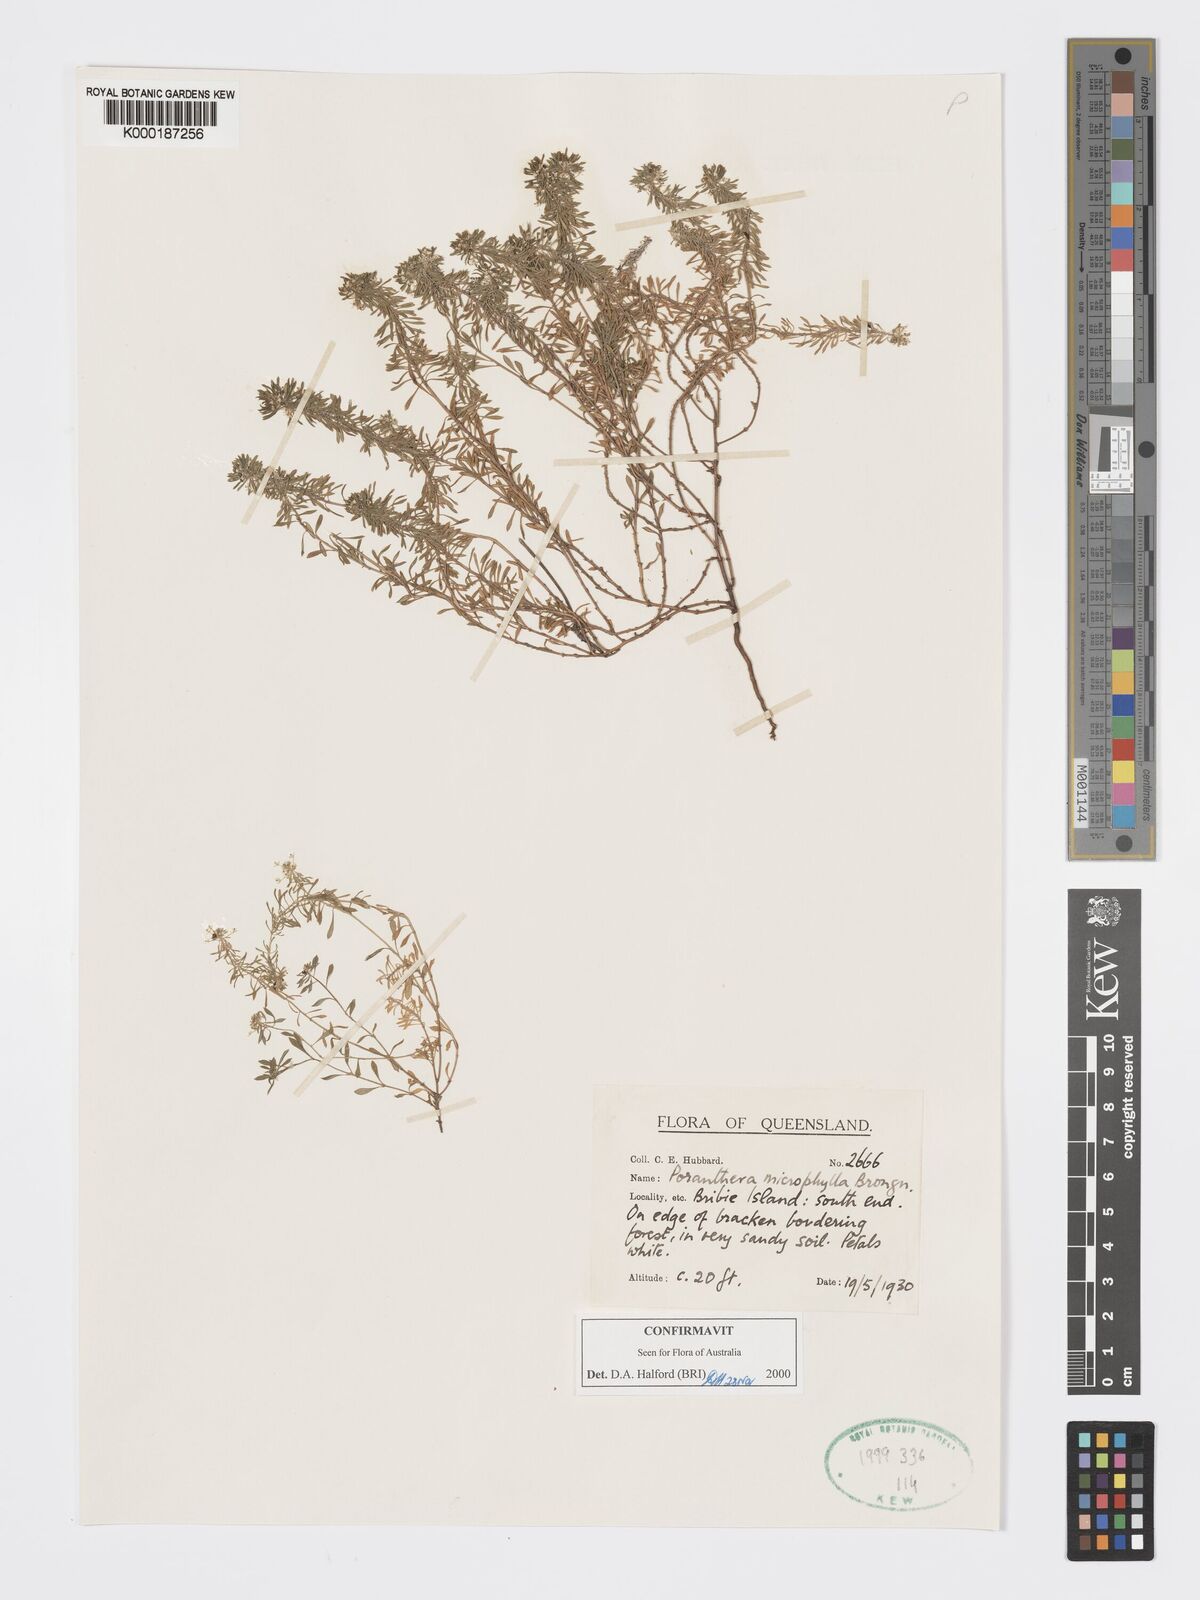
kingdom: Plantae
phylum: Tracheophyta
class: Magnoliopsida
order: Malpighiales
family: Phyllanthaceae
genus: Poranthera
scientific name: Poranthera microphylla
